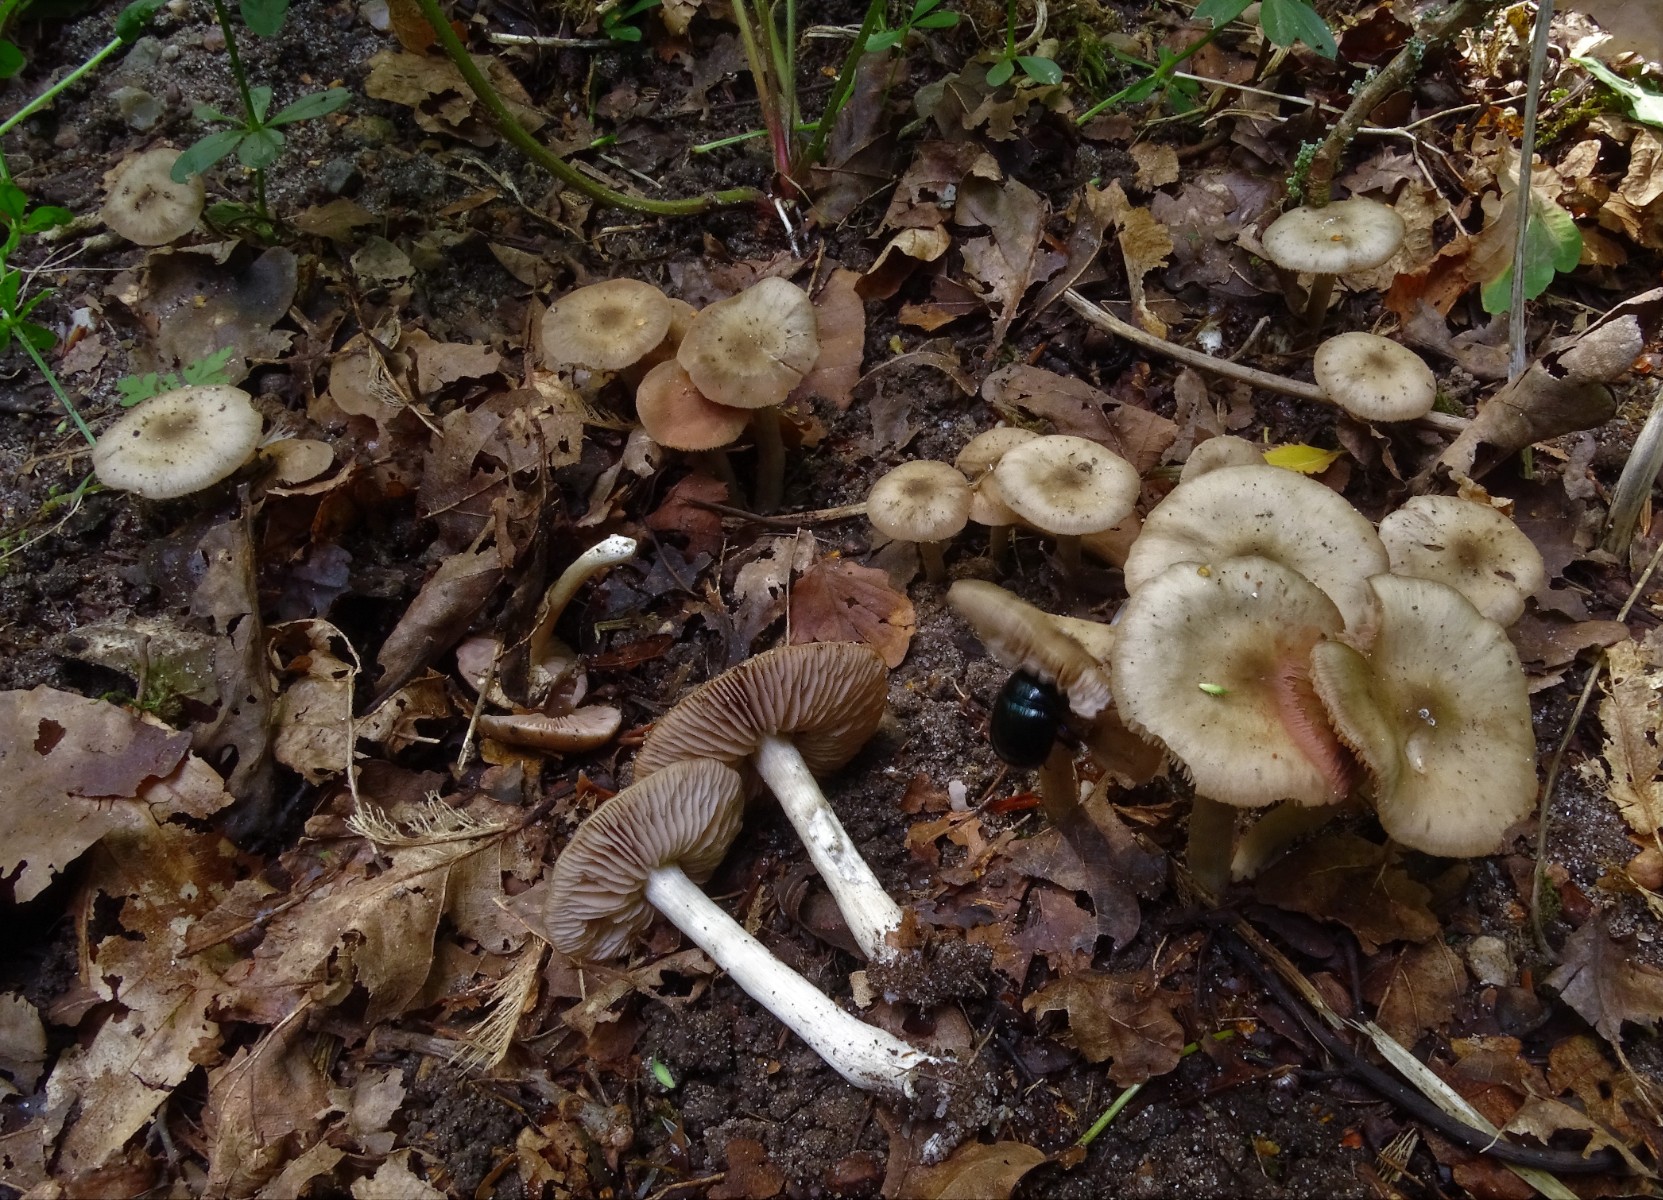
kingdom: Fungi
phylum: Basidiomycota
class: Agaricomycetes
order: Agaricales
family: Entolomataceae
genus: Entoloma
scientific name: Entoloma rhodopolium
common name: skov-rødblad
